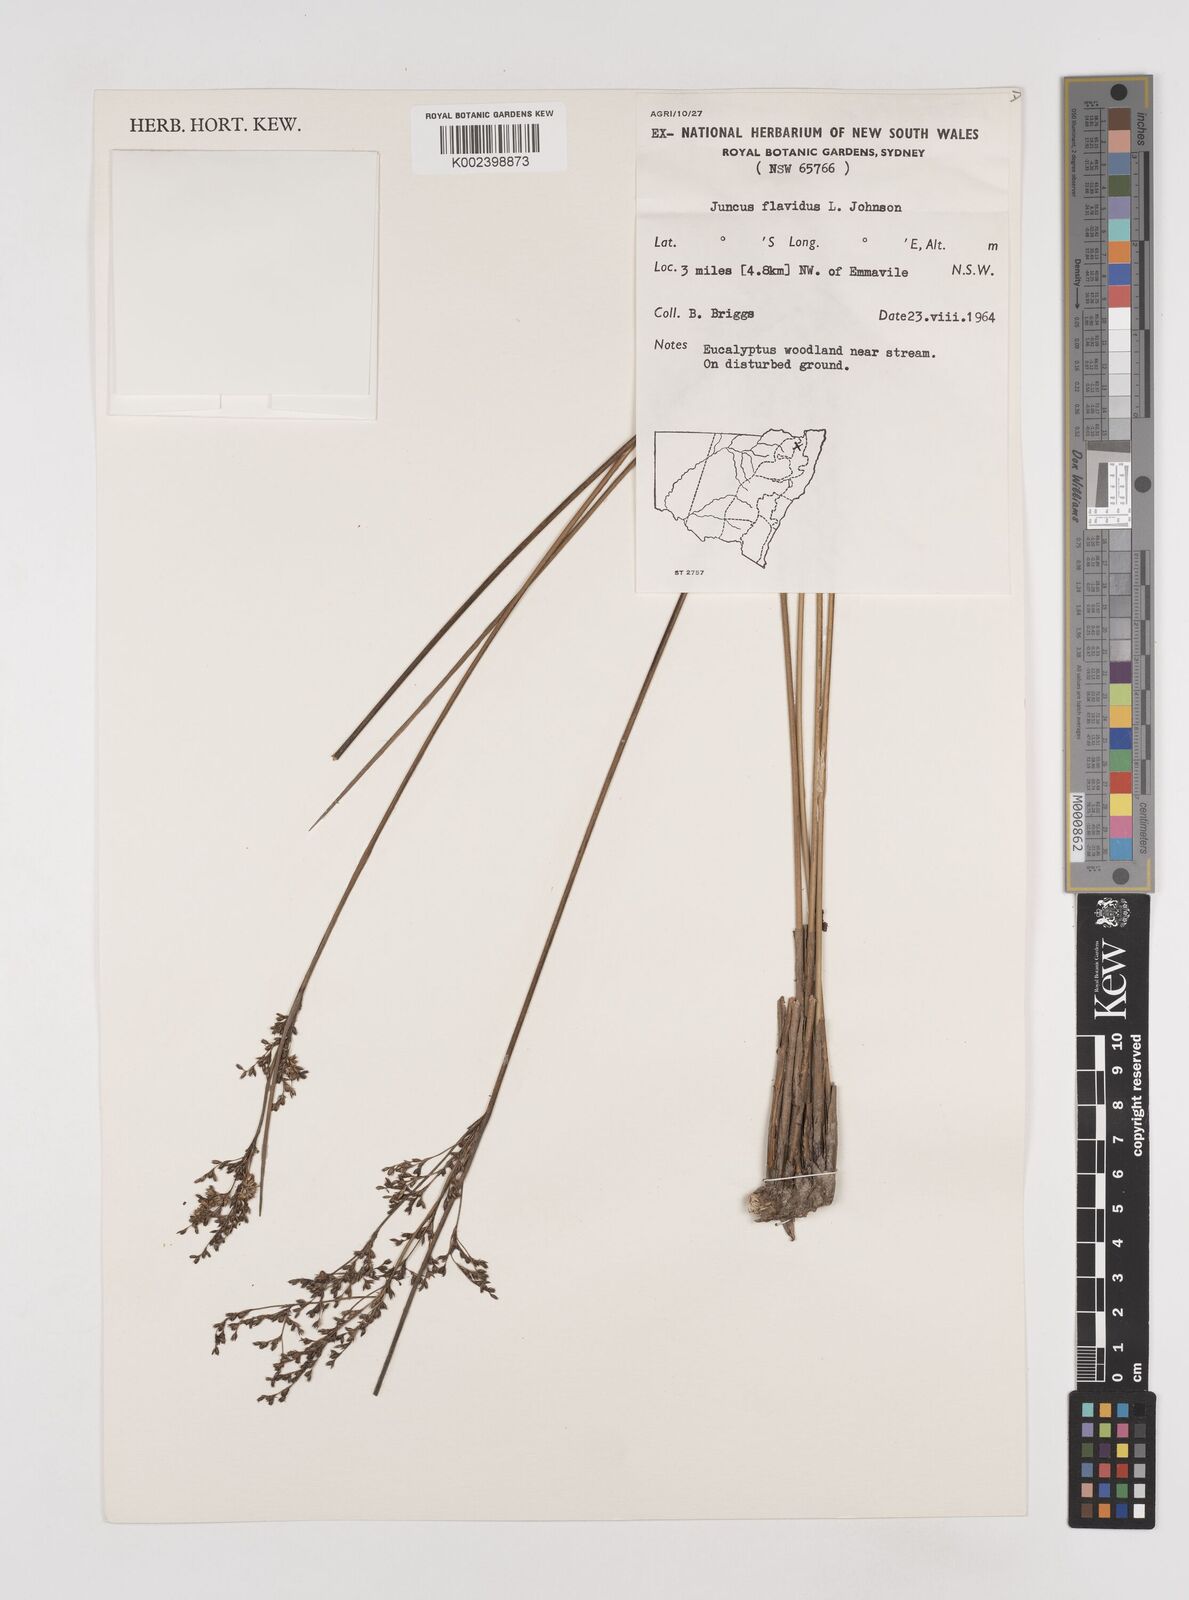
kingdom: Plantae
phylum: Tracheophyta
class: Liliopsida
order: Poales
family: Juncaceae
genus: Juncus
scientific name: Juncus flavidus
